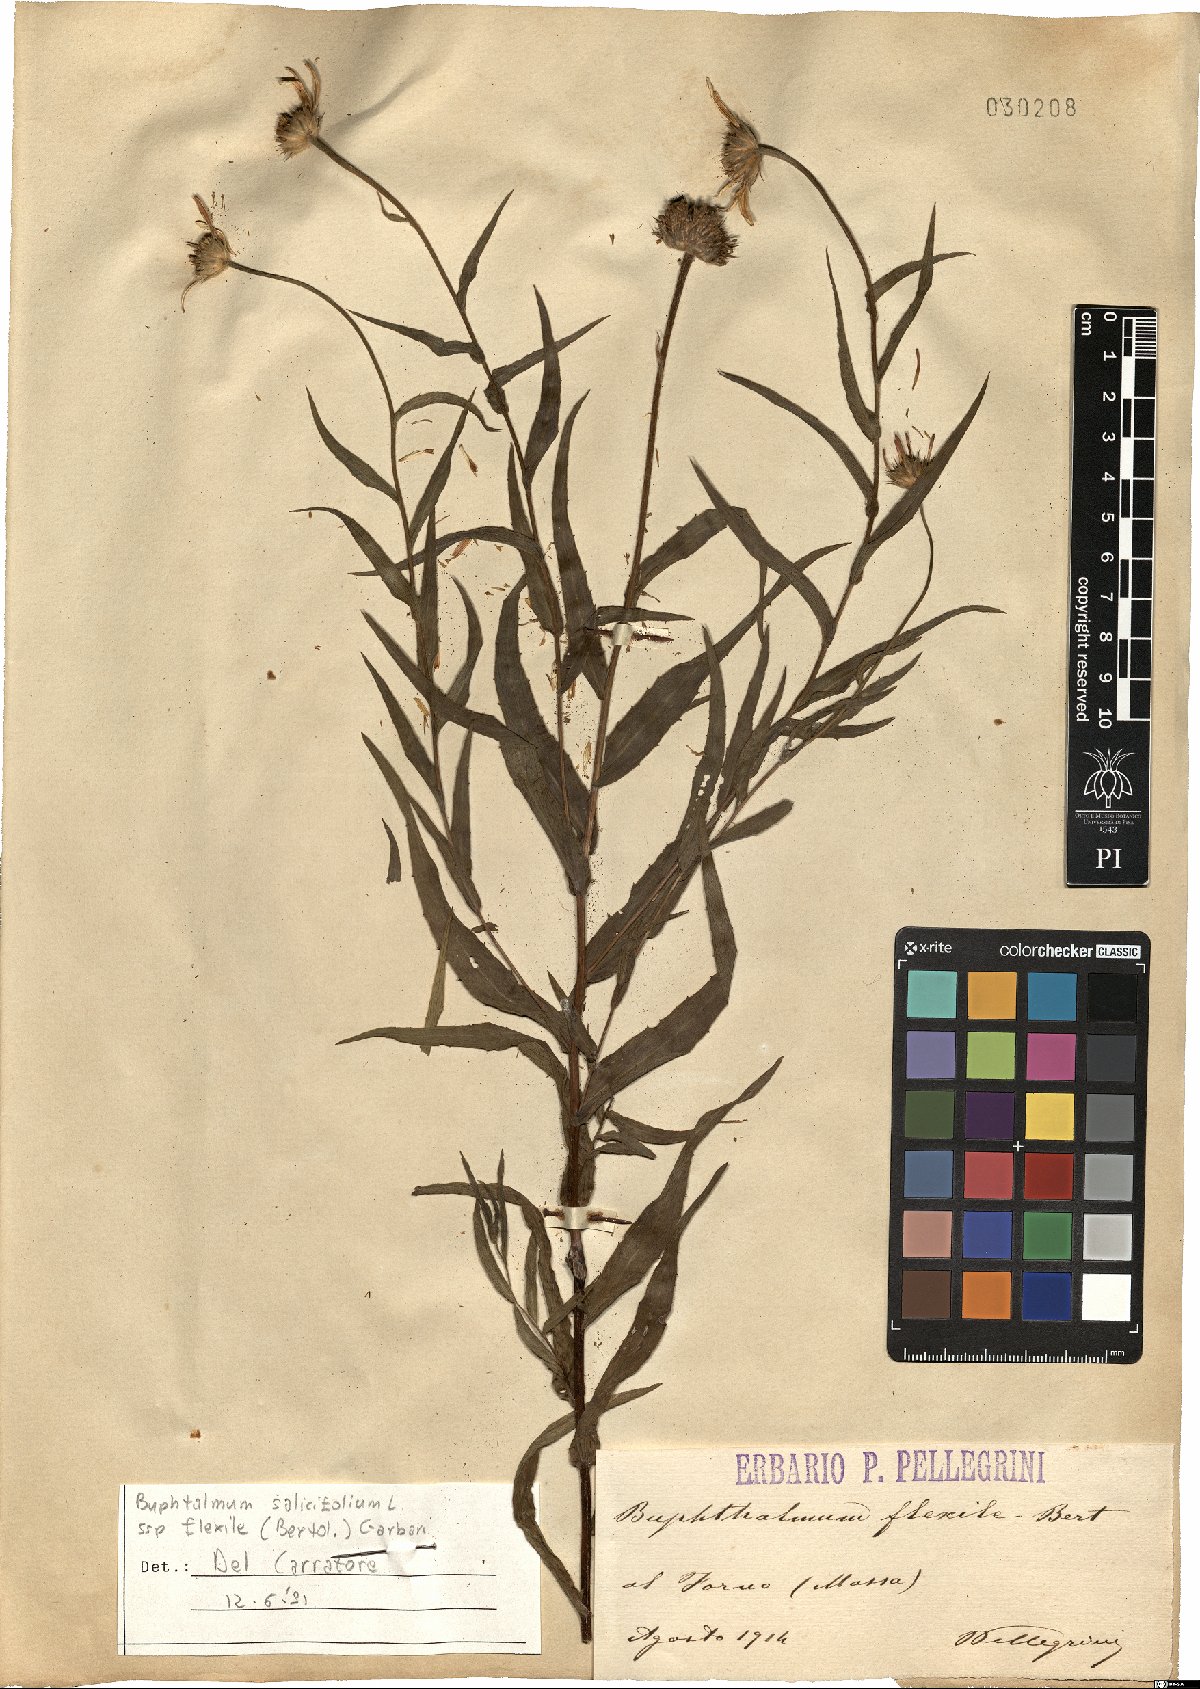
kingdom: Plantae
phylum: Tracheophyta
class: Magnoliopsida
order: Asterales
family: Asteraceae
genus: Buphthalmum
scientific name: Buphthalmum salicifolium
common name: Willow-leaved yellow-oxeye
